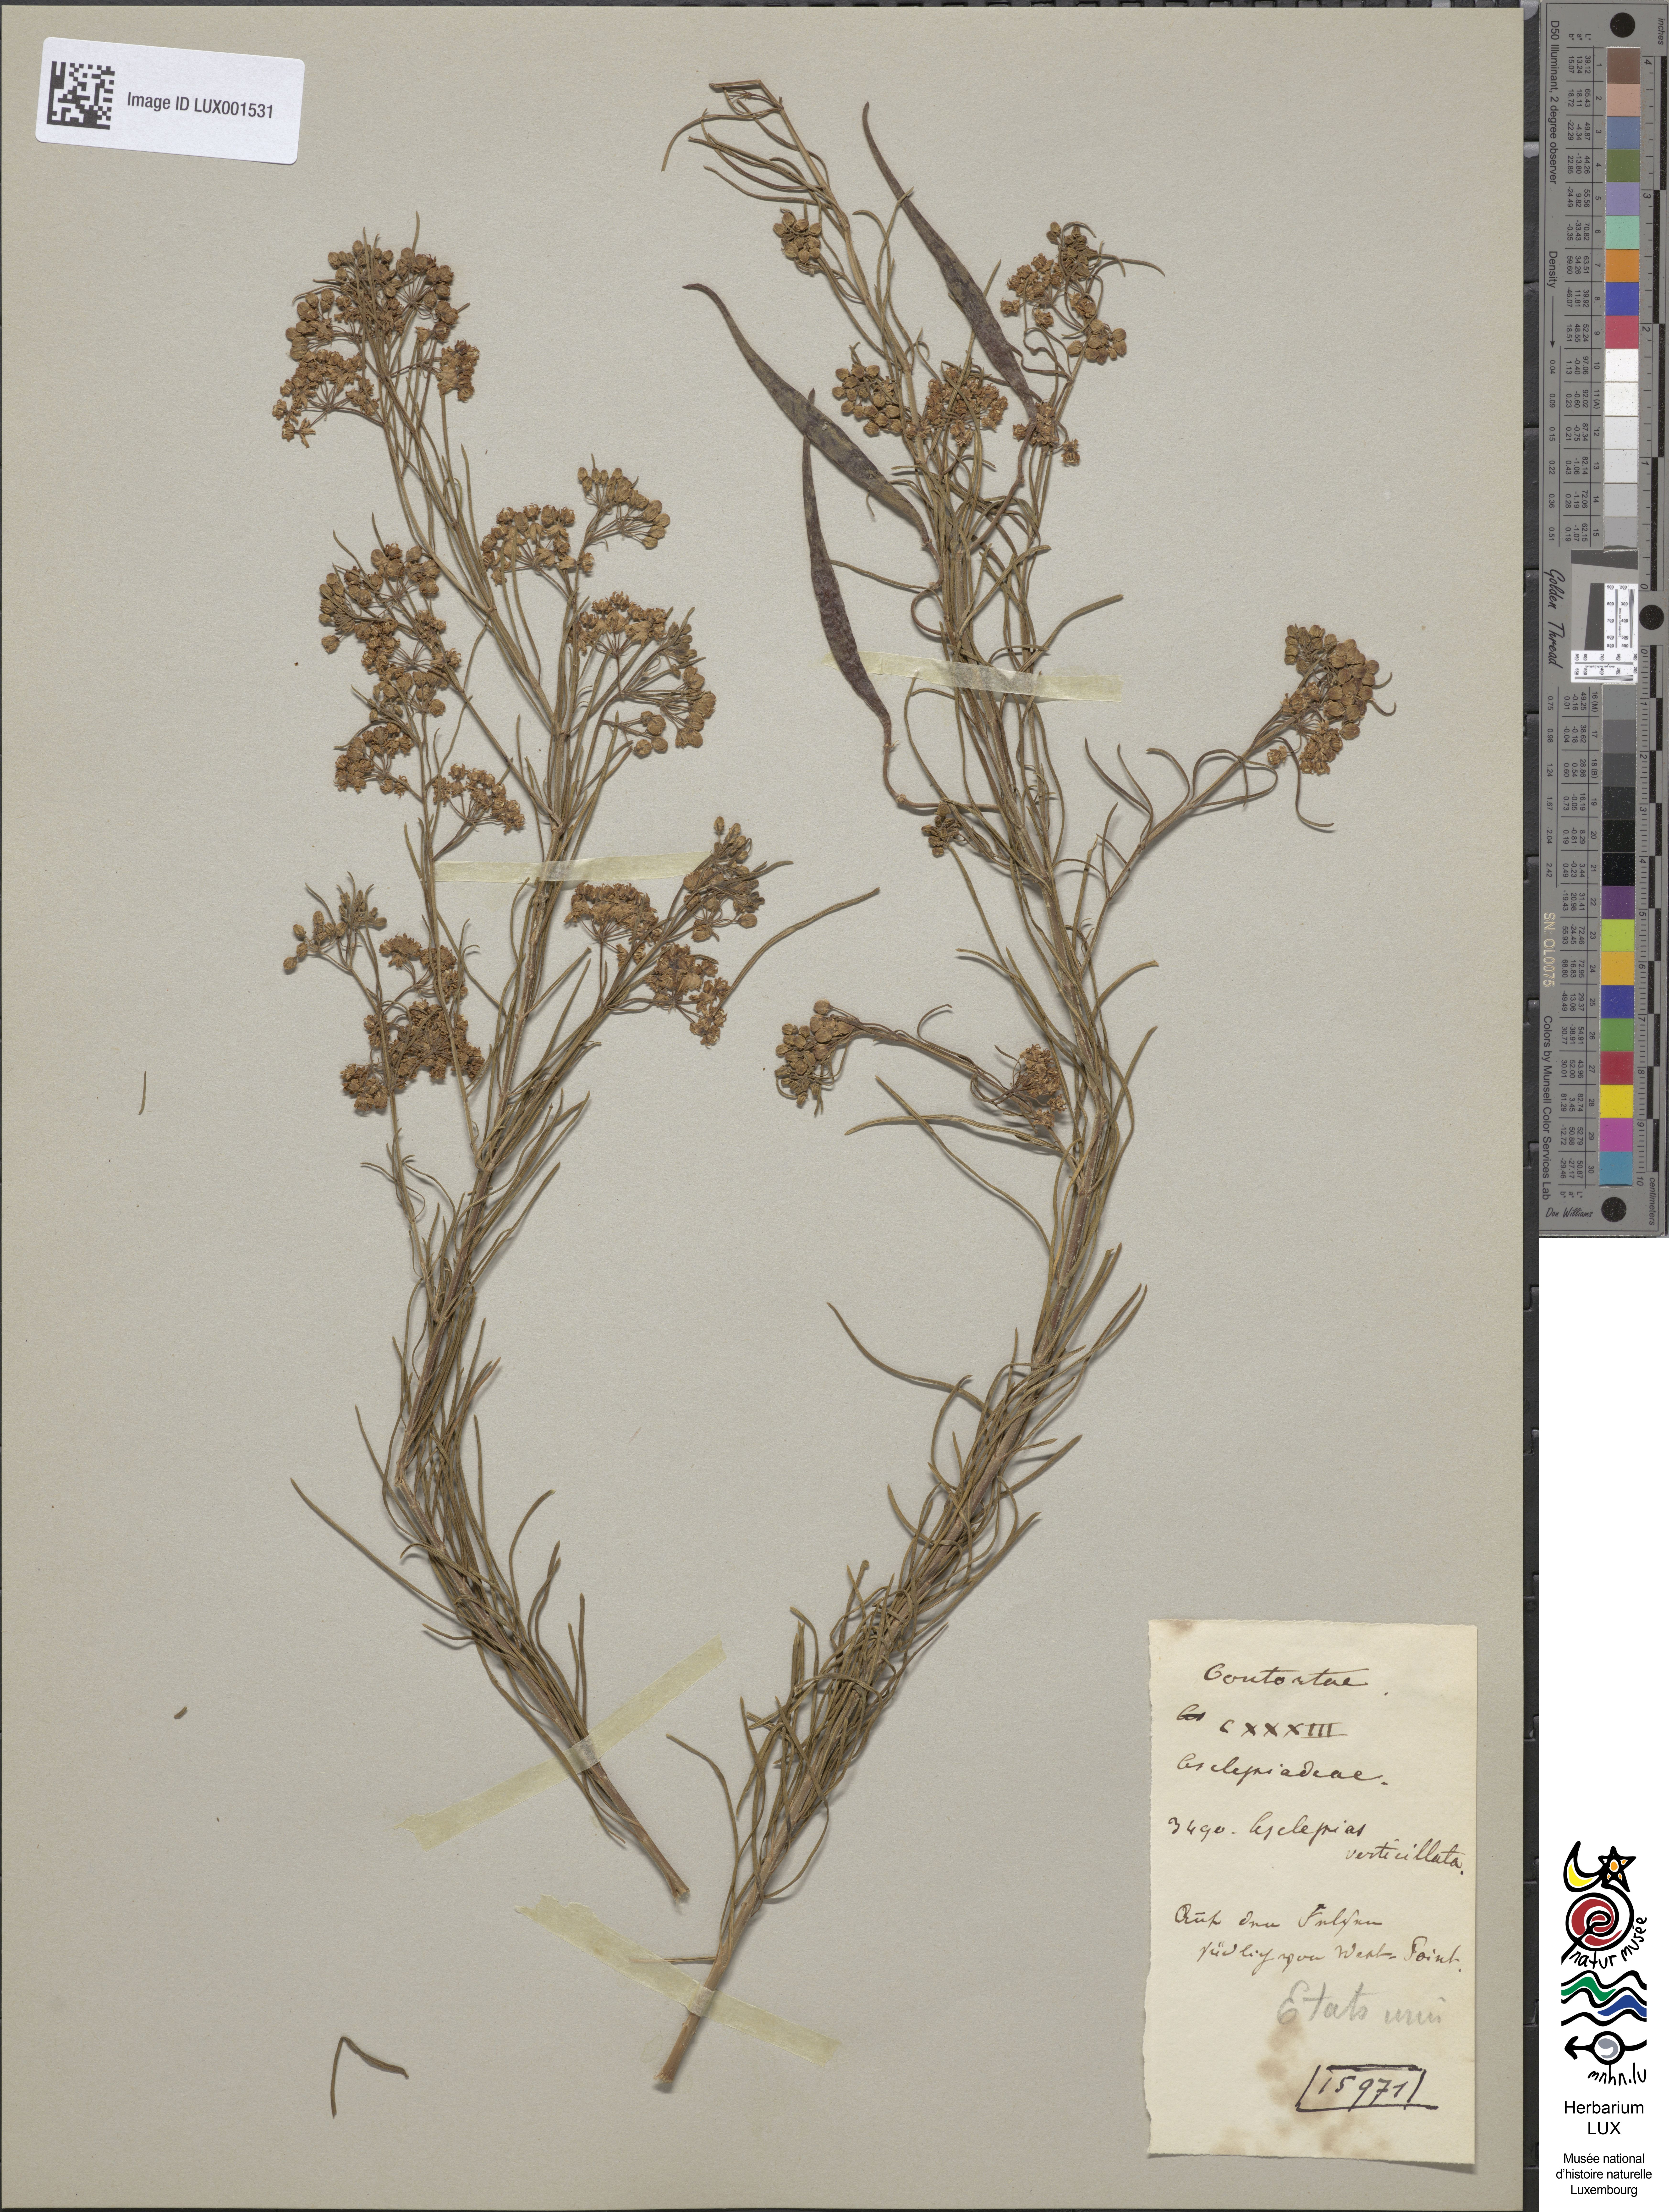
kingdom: Plantae
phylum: Tracheophyta
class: Magnoliopsida
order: Gentianales
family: Apocynaceae
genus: Asclepias
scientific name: Asclepias verticillata
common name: Eastern whorled milkweed
